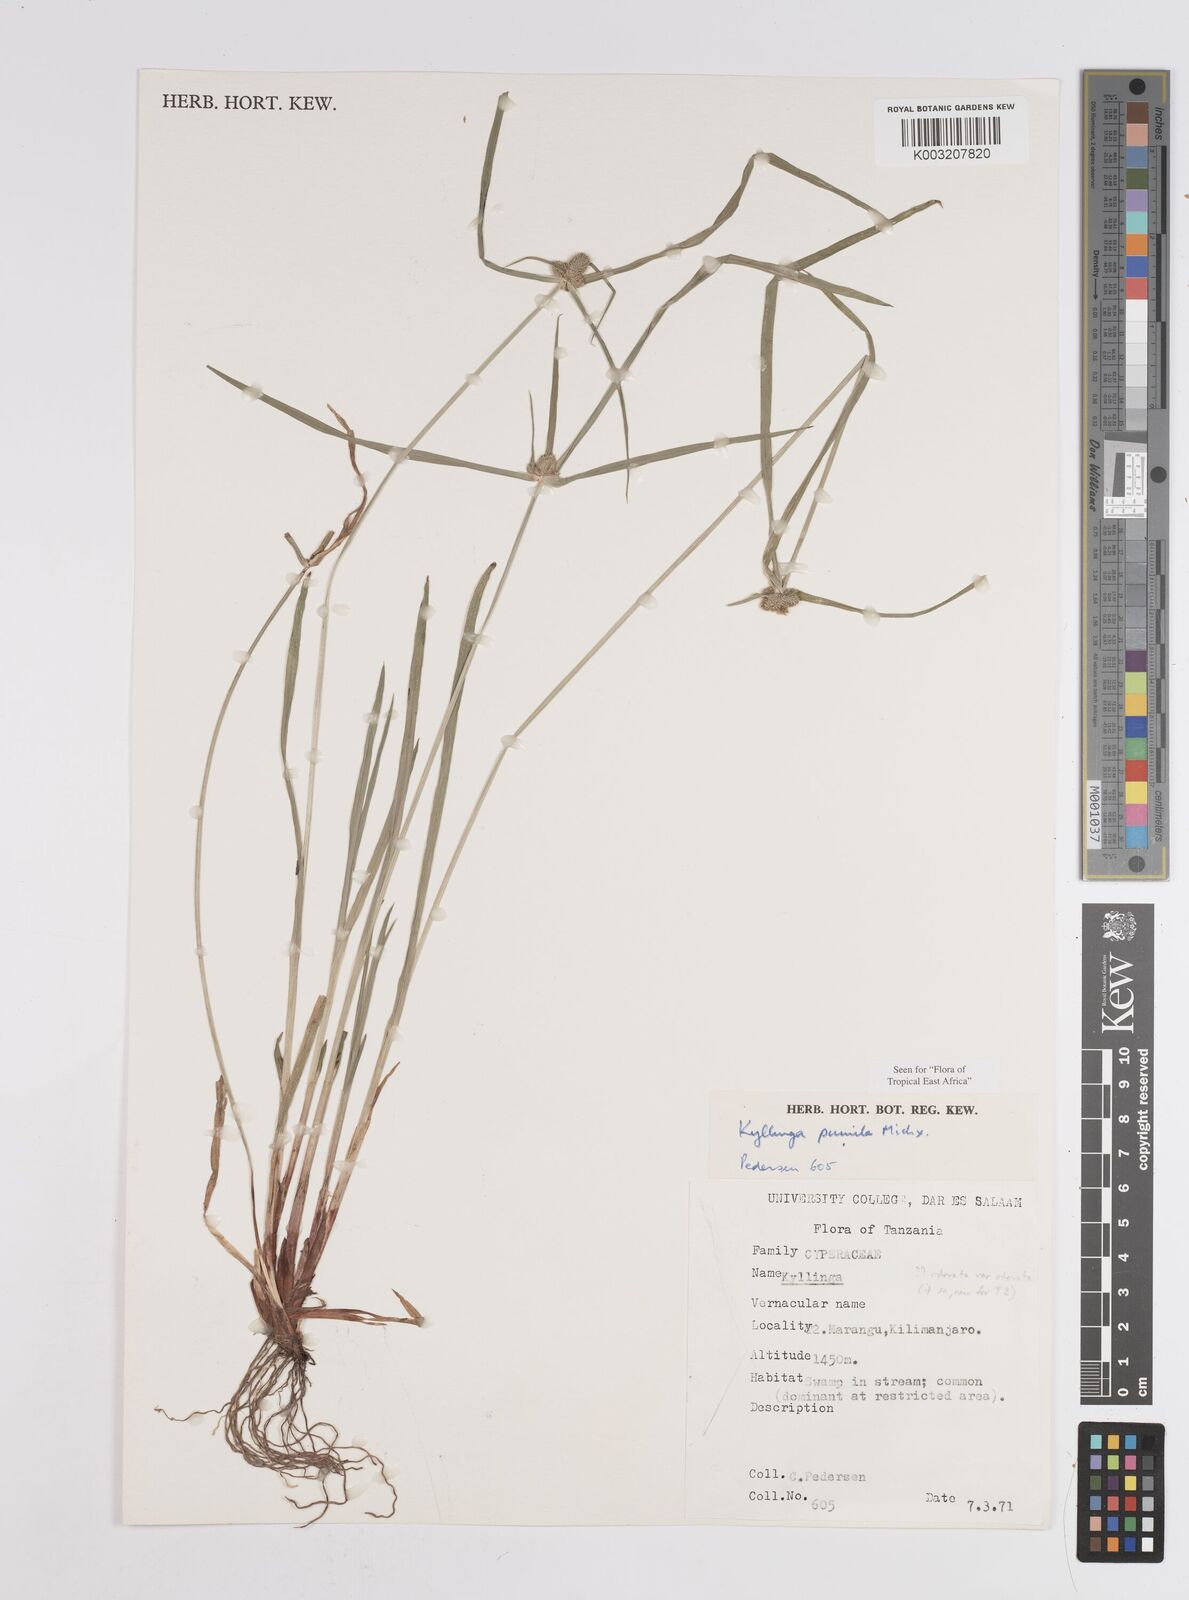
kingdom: Plantae
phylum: Tracheophyta
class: Liliopsida
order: Poales
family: Cyperaceae
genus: Cyperus
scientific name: Cyperus hortensis
